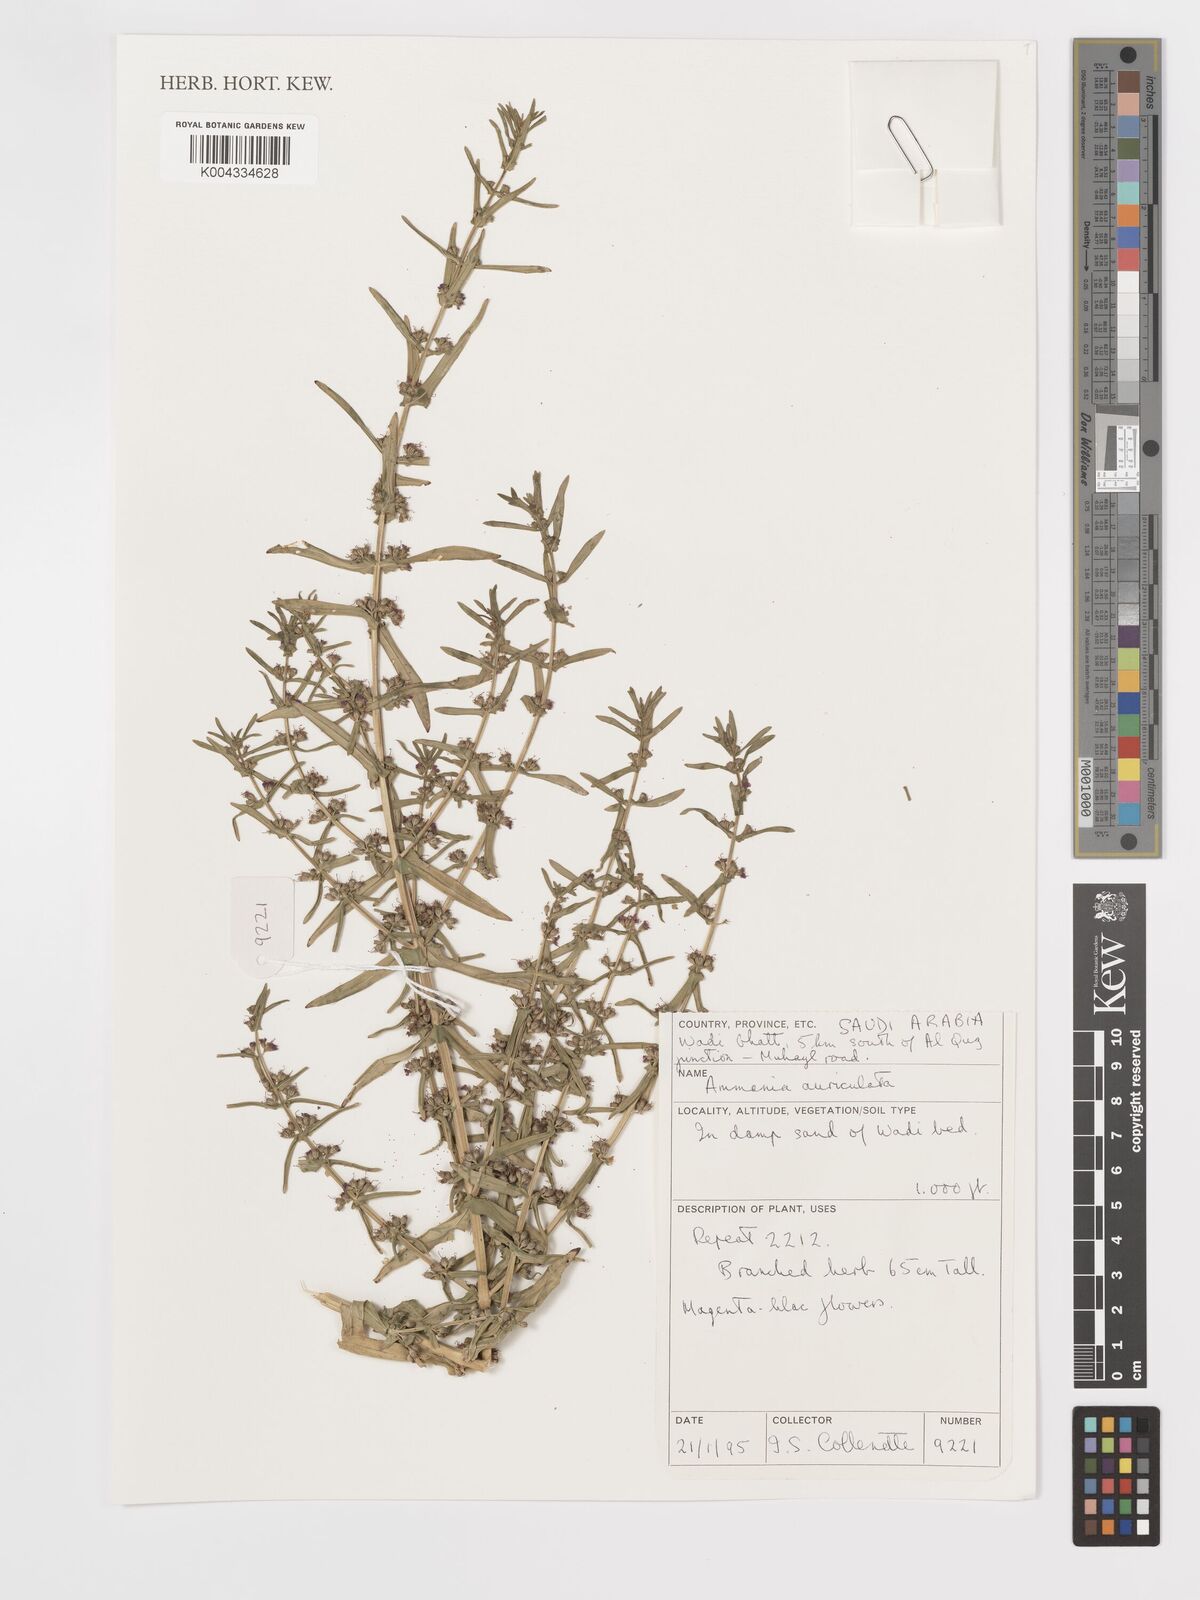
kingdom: Plantae
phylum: Tracheophyta
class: Magnoliopsida
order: Myrtales
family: Lythraceae
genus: Ammannia
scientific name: Ammannia auriculata
